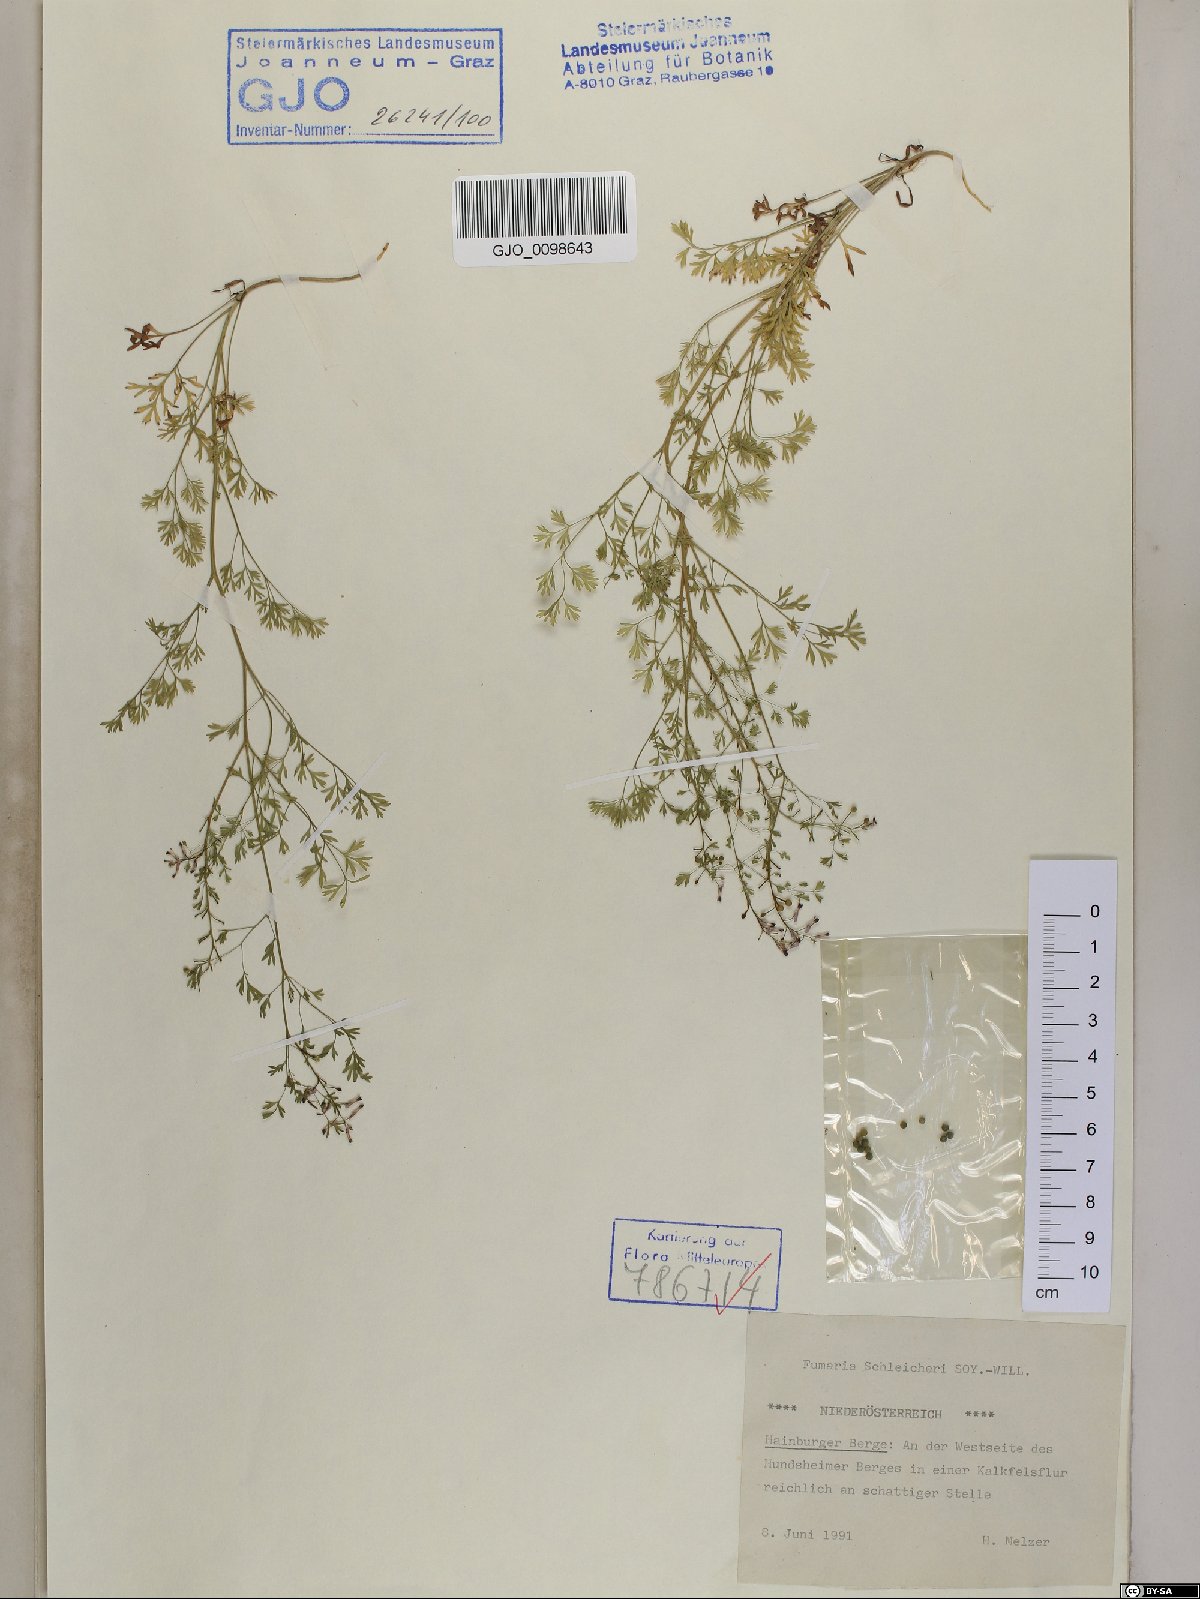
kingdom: Plantae
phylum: Tracheophyta
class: Magnoliopsida
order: Ranunculales
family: Papaveraceae
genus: Fumaria
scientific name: Fumaria schleicheri
